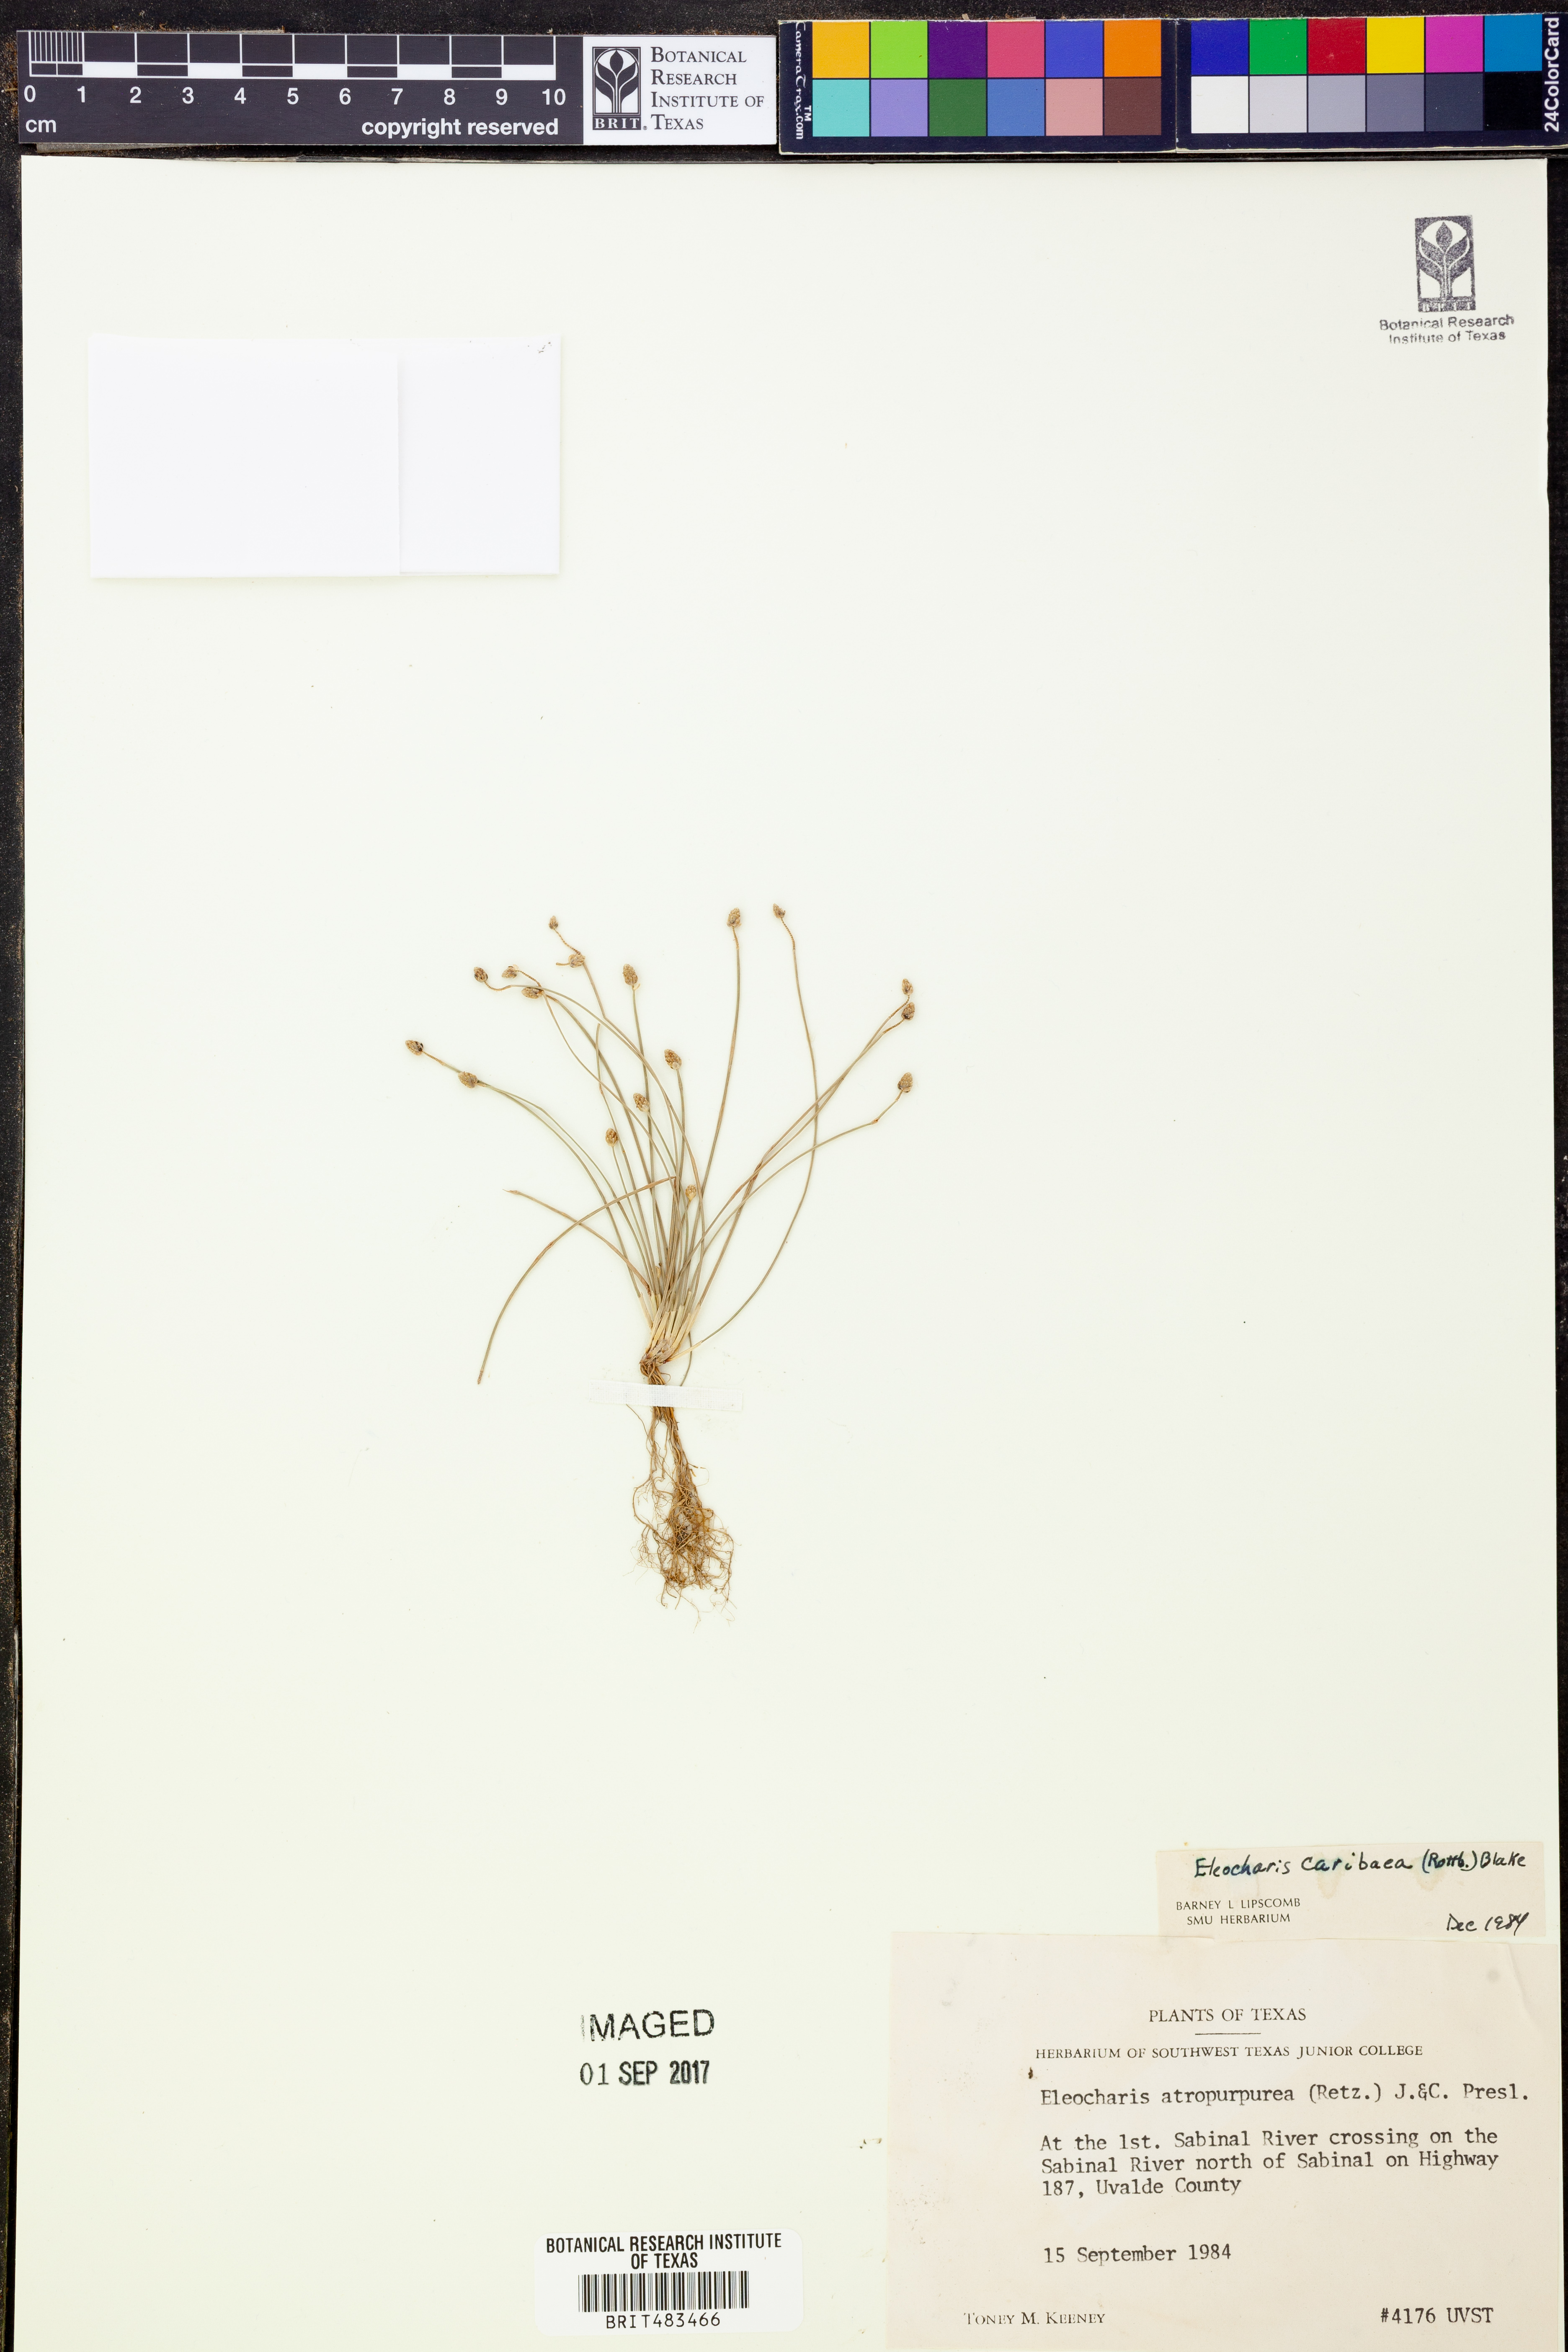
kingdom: Plantae
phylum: Tracheophyta
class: Liliopsida
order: Poales
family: Cyperaceae
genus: Eleocharis
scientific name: Eleocharis geniculata
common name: Canada spikesedge
